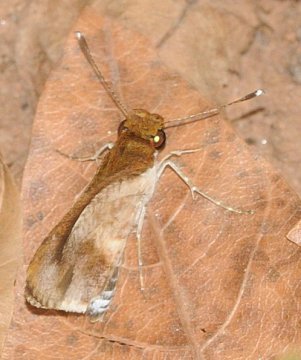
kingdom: Animalia
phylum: Arthropoda
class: Insecta
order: Lepidoptera
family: Hesperiidae
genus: Acleros
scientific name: Acleros mackenii
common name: Macken's Dart
